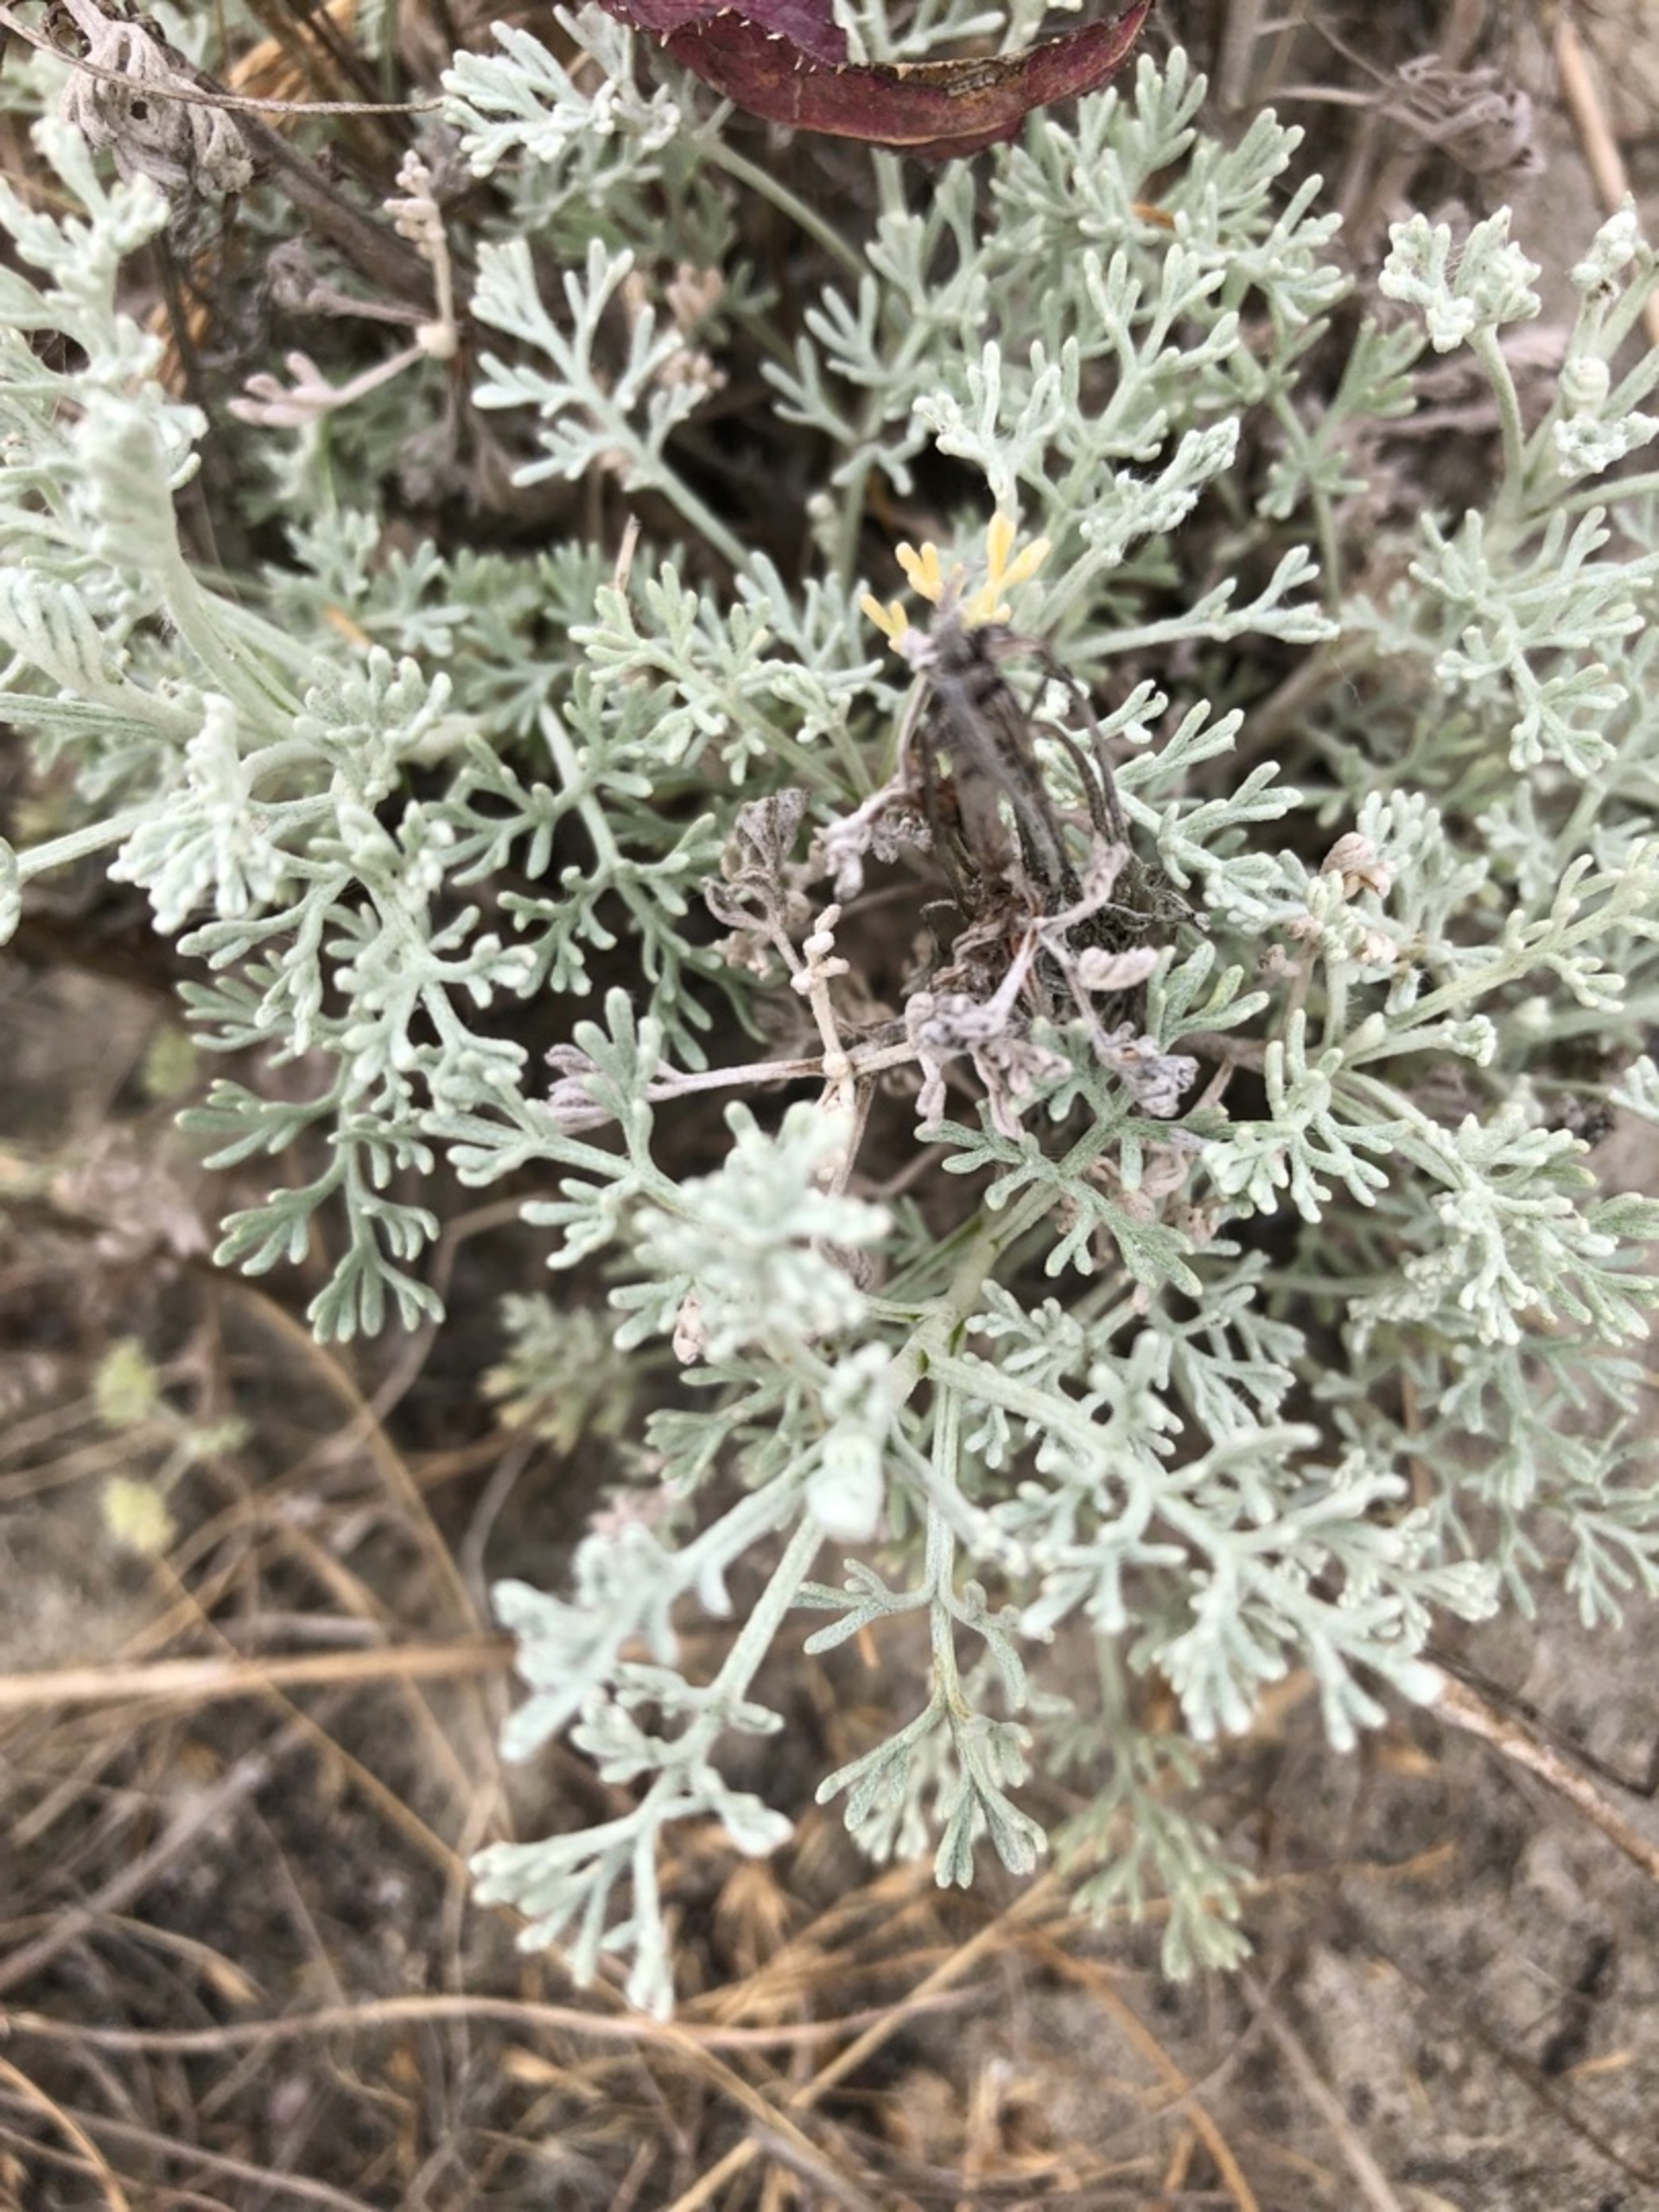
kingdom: Plantae
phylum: Tracheophyta
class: Magnoliopsida
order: Asterales
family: Asteraceae
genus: Artemisia
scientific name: Artemisia maritima
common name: Strandmalurt
